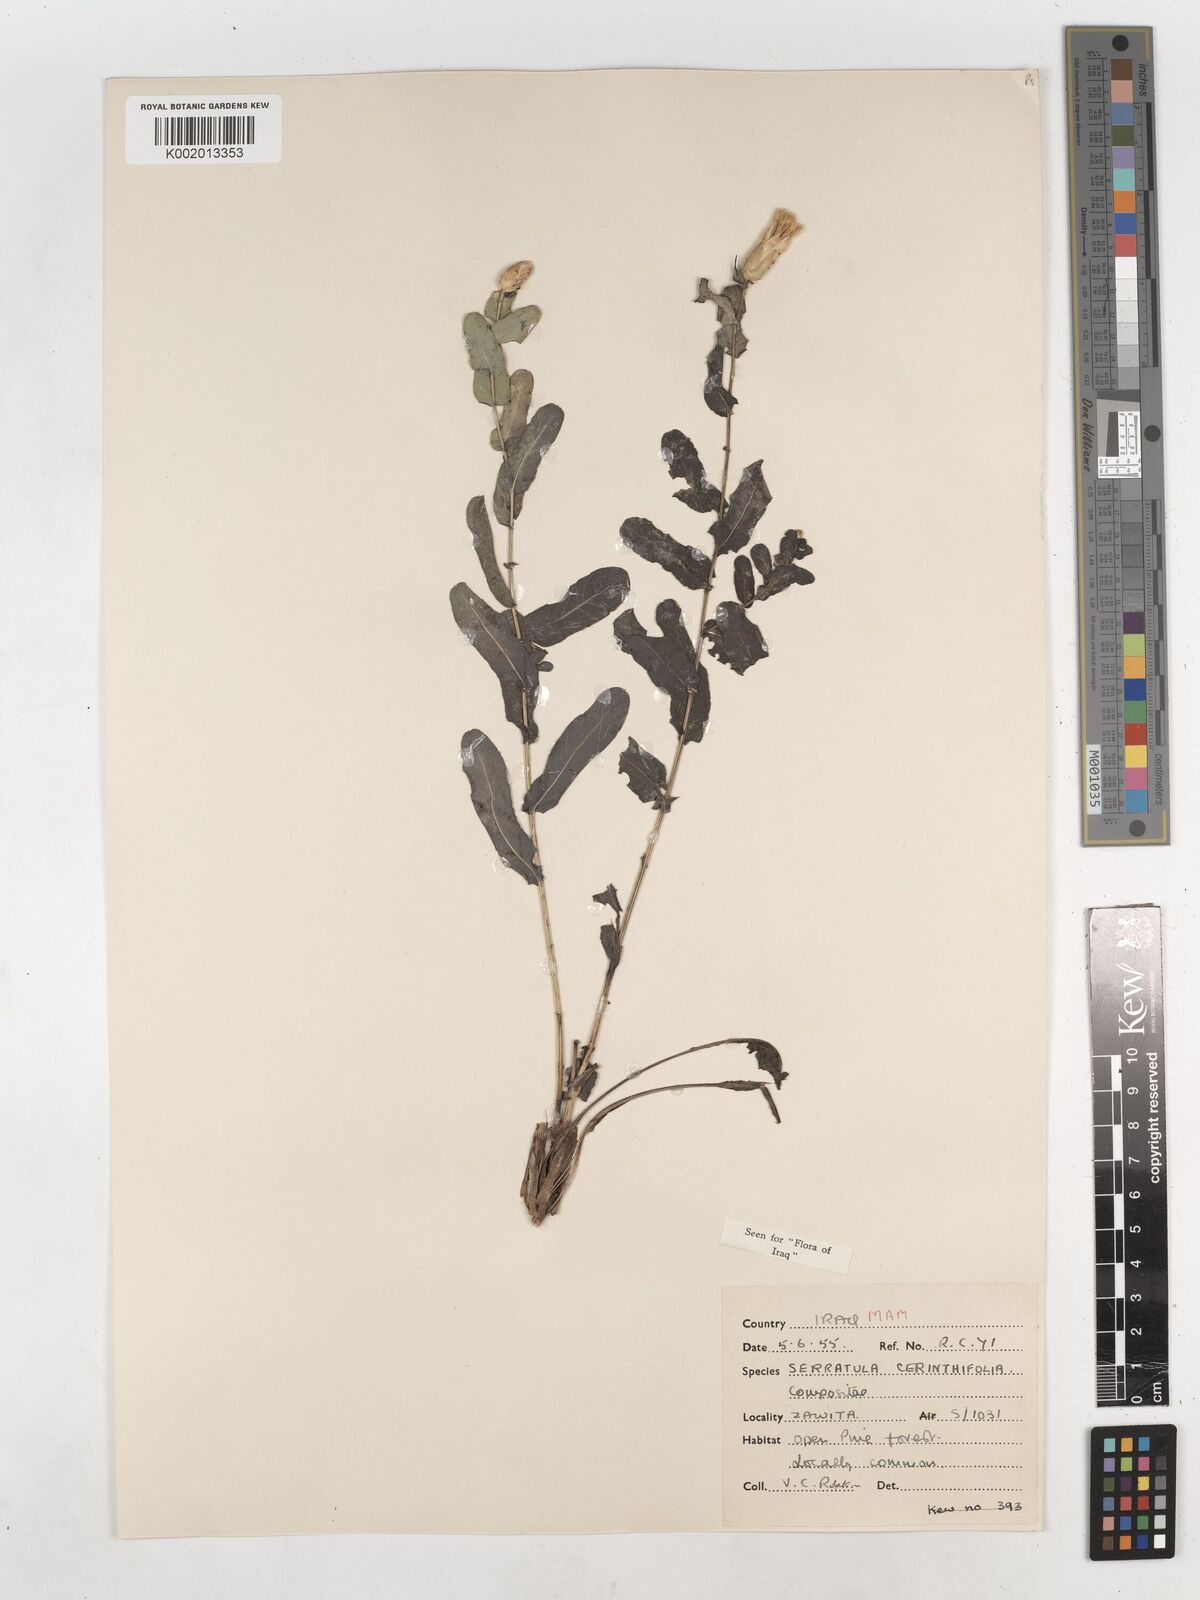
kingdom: Plantae
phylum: Tracheophyta
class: Magnoliopsida
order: Asterales
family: Asteraceae
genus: Klasea
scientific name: Klasea cerinthifolia
